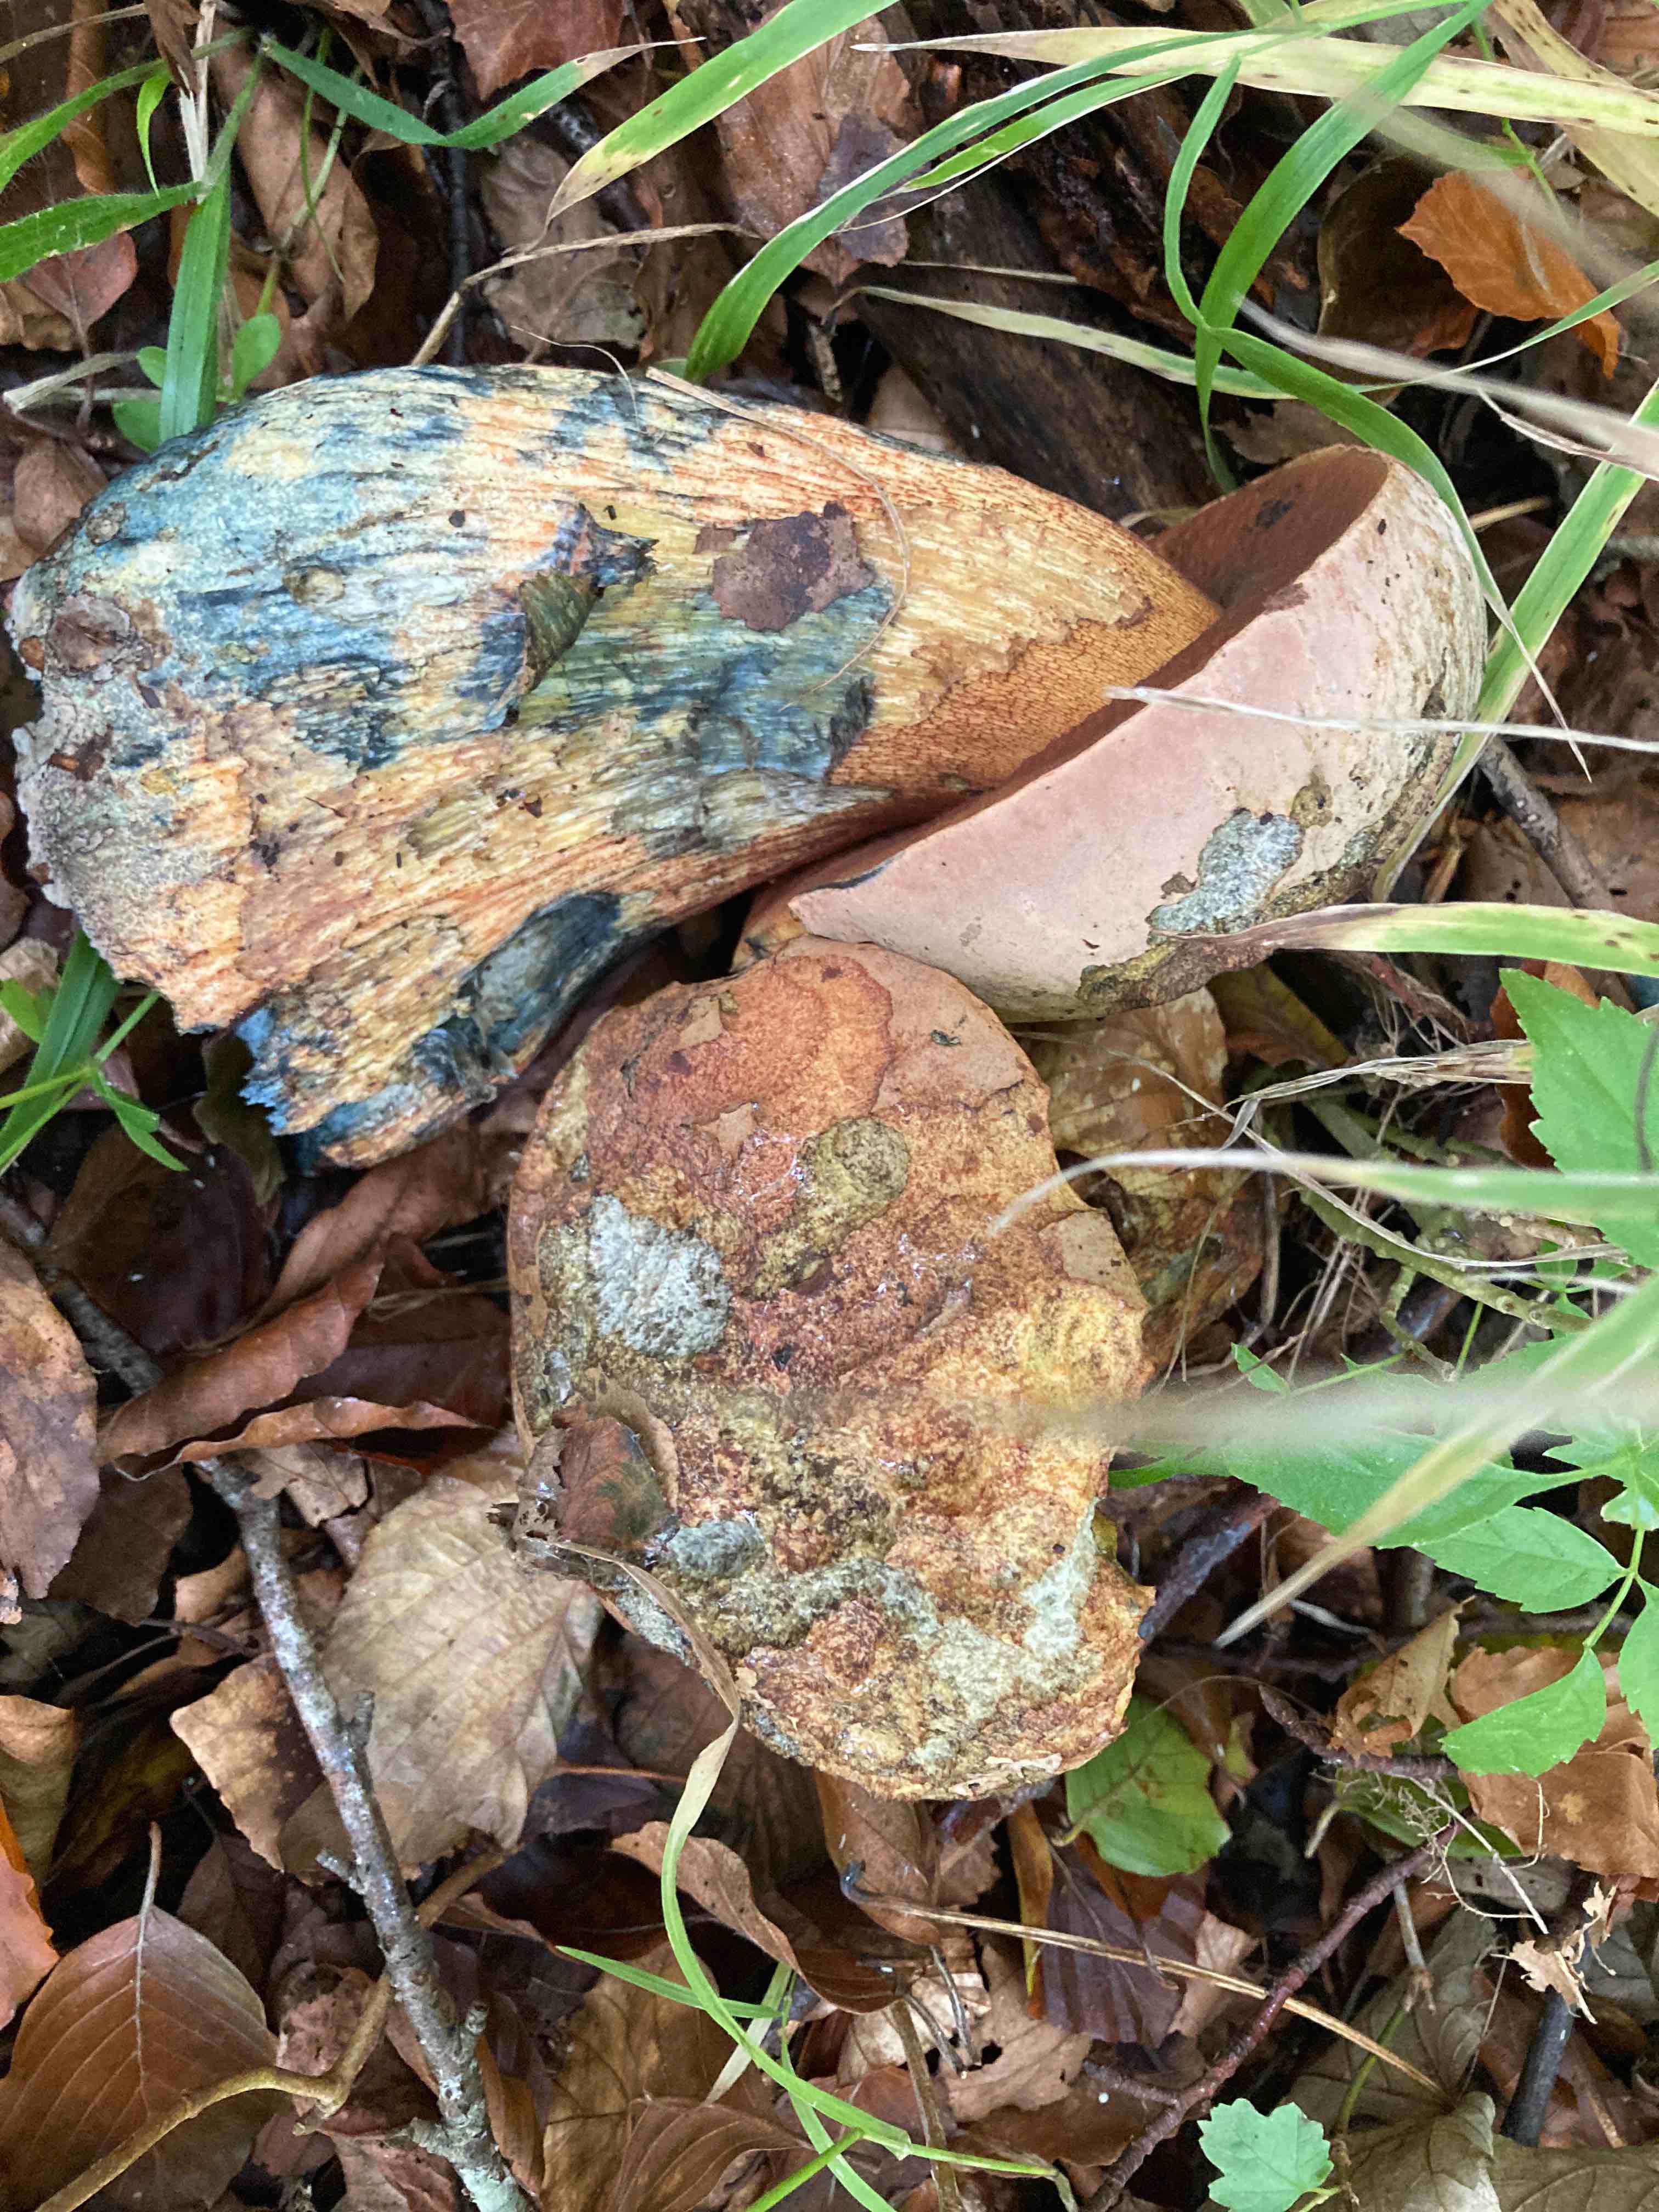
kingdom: Fungi
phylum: Basidiomycota
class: Agaricomycetes
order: Boletales
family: Boletaceae
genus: Suillellus
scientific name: Suillellus luridus
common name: netstokket indigorørhat
